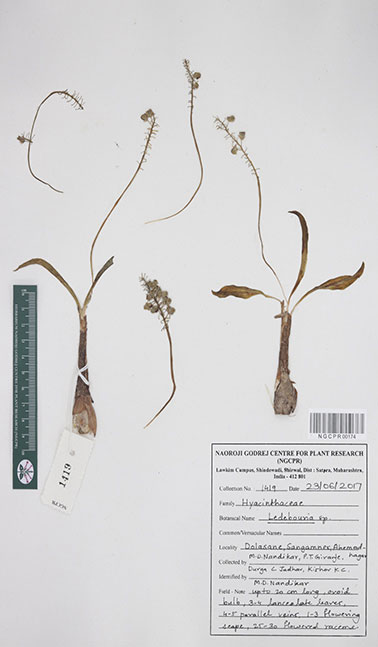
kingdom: Plantae
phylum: Tracheophyta
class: Liliopsida
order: Asparagales
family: Asparagaceae
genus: Ledebouria
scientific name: Ledebouria
